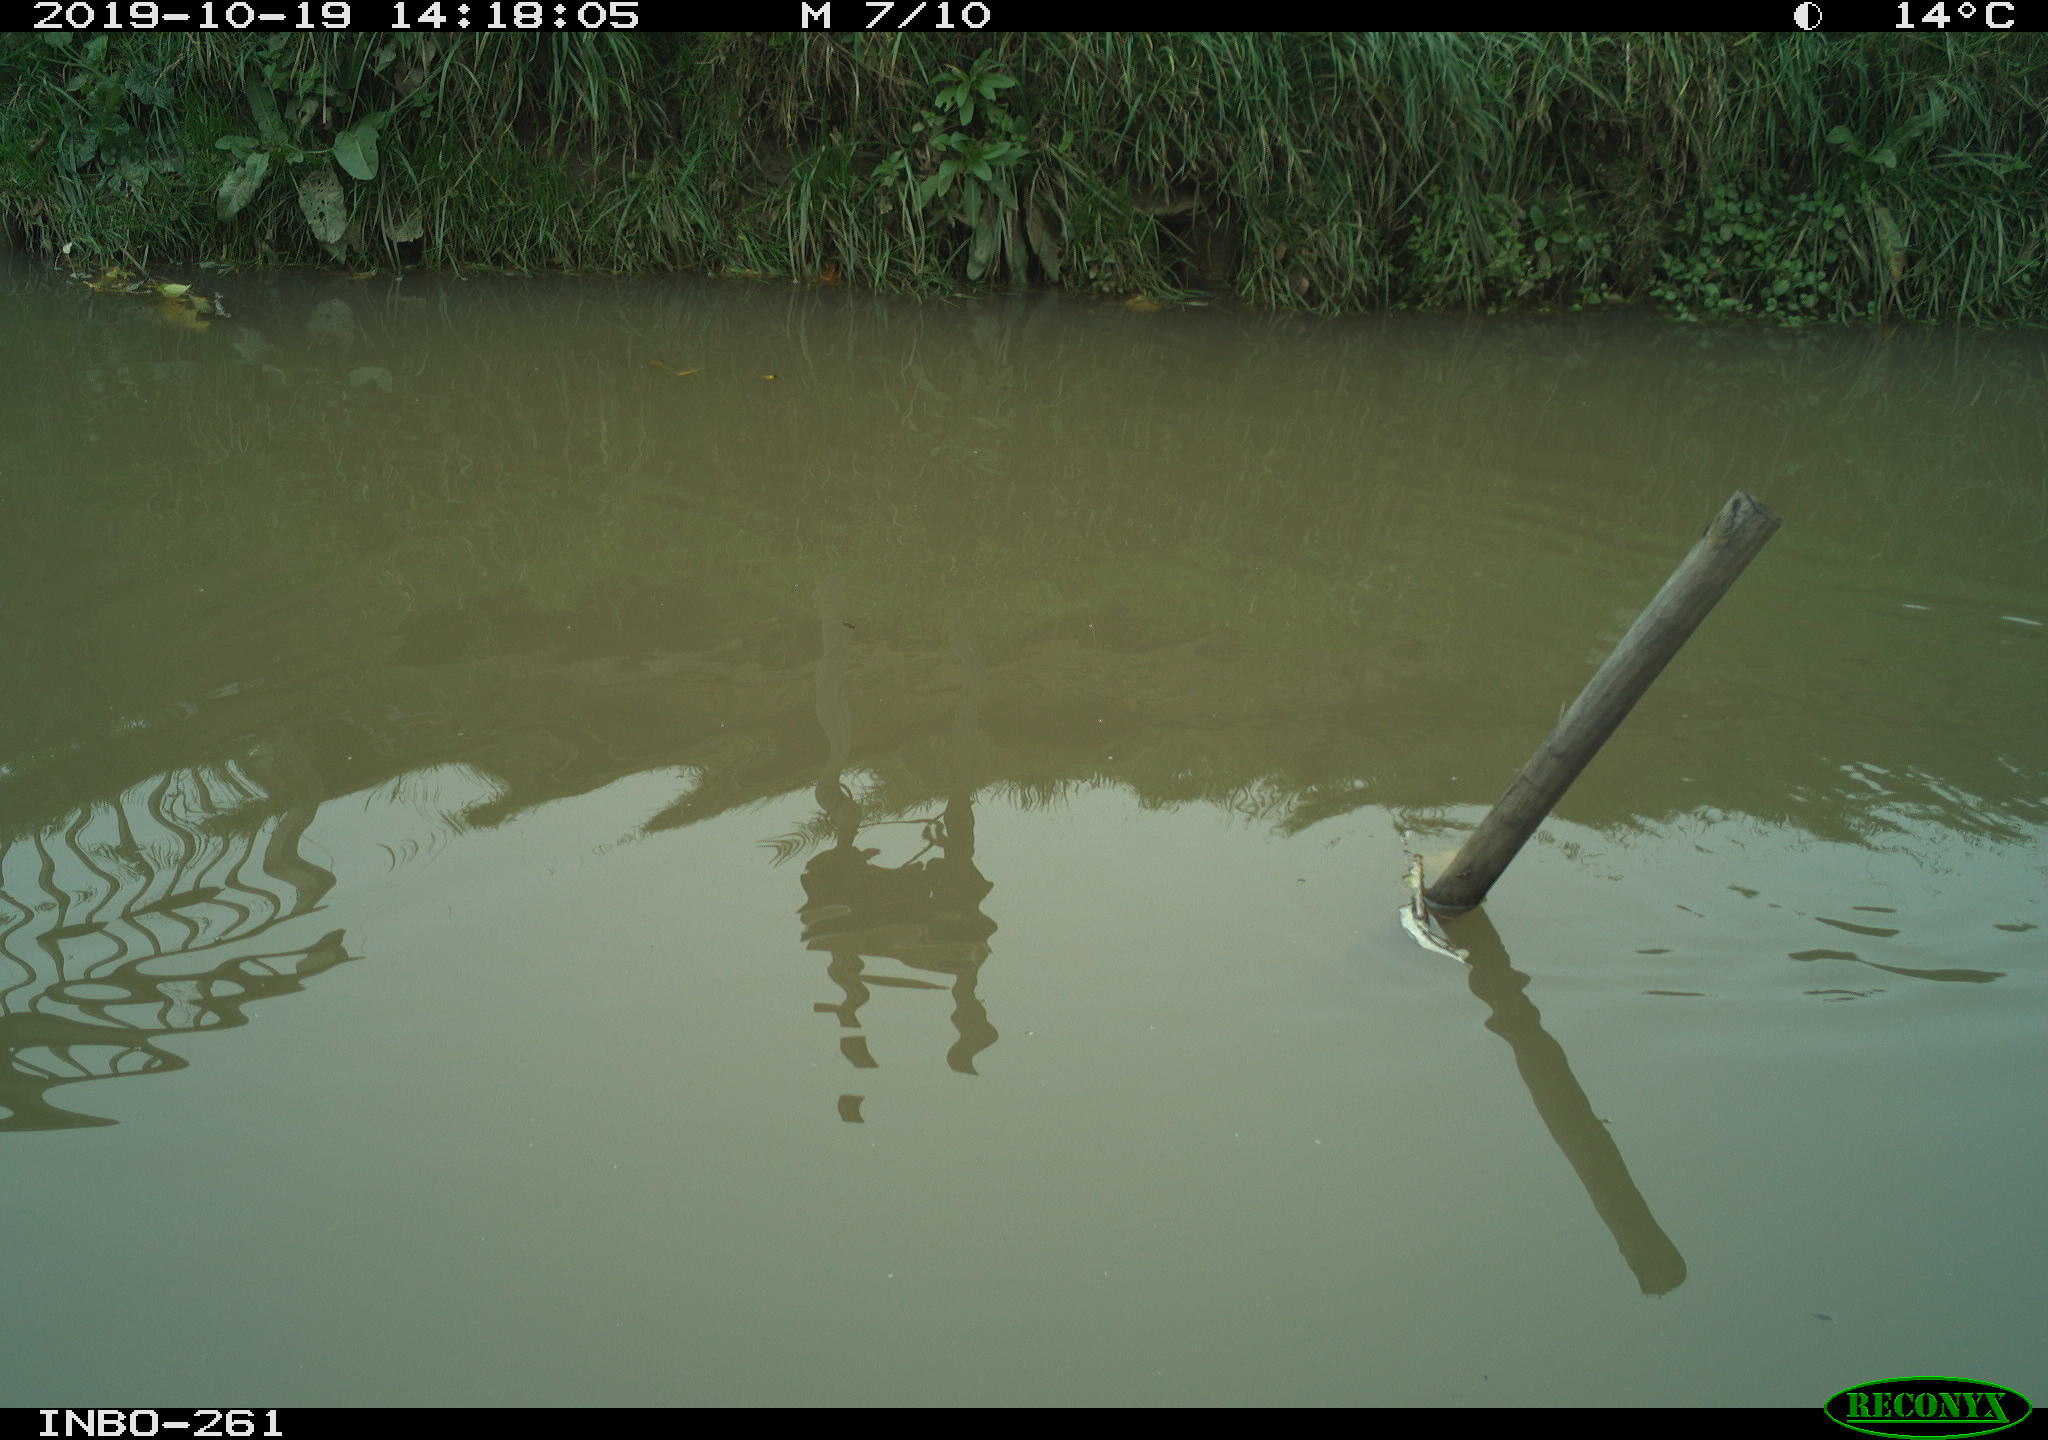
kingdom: Animalia
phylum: Chordata
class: Aves
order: Gruiformes
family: Rallidae
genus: Gallinula
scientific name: Gallinula chloropus
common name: Common moorhen
